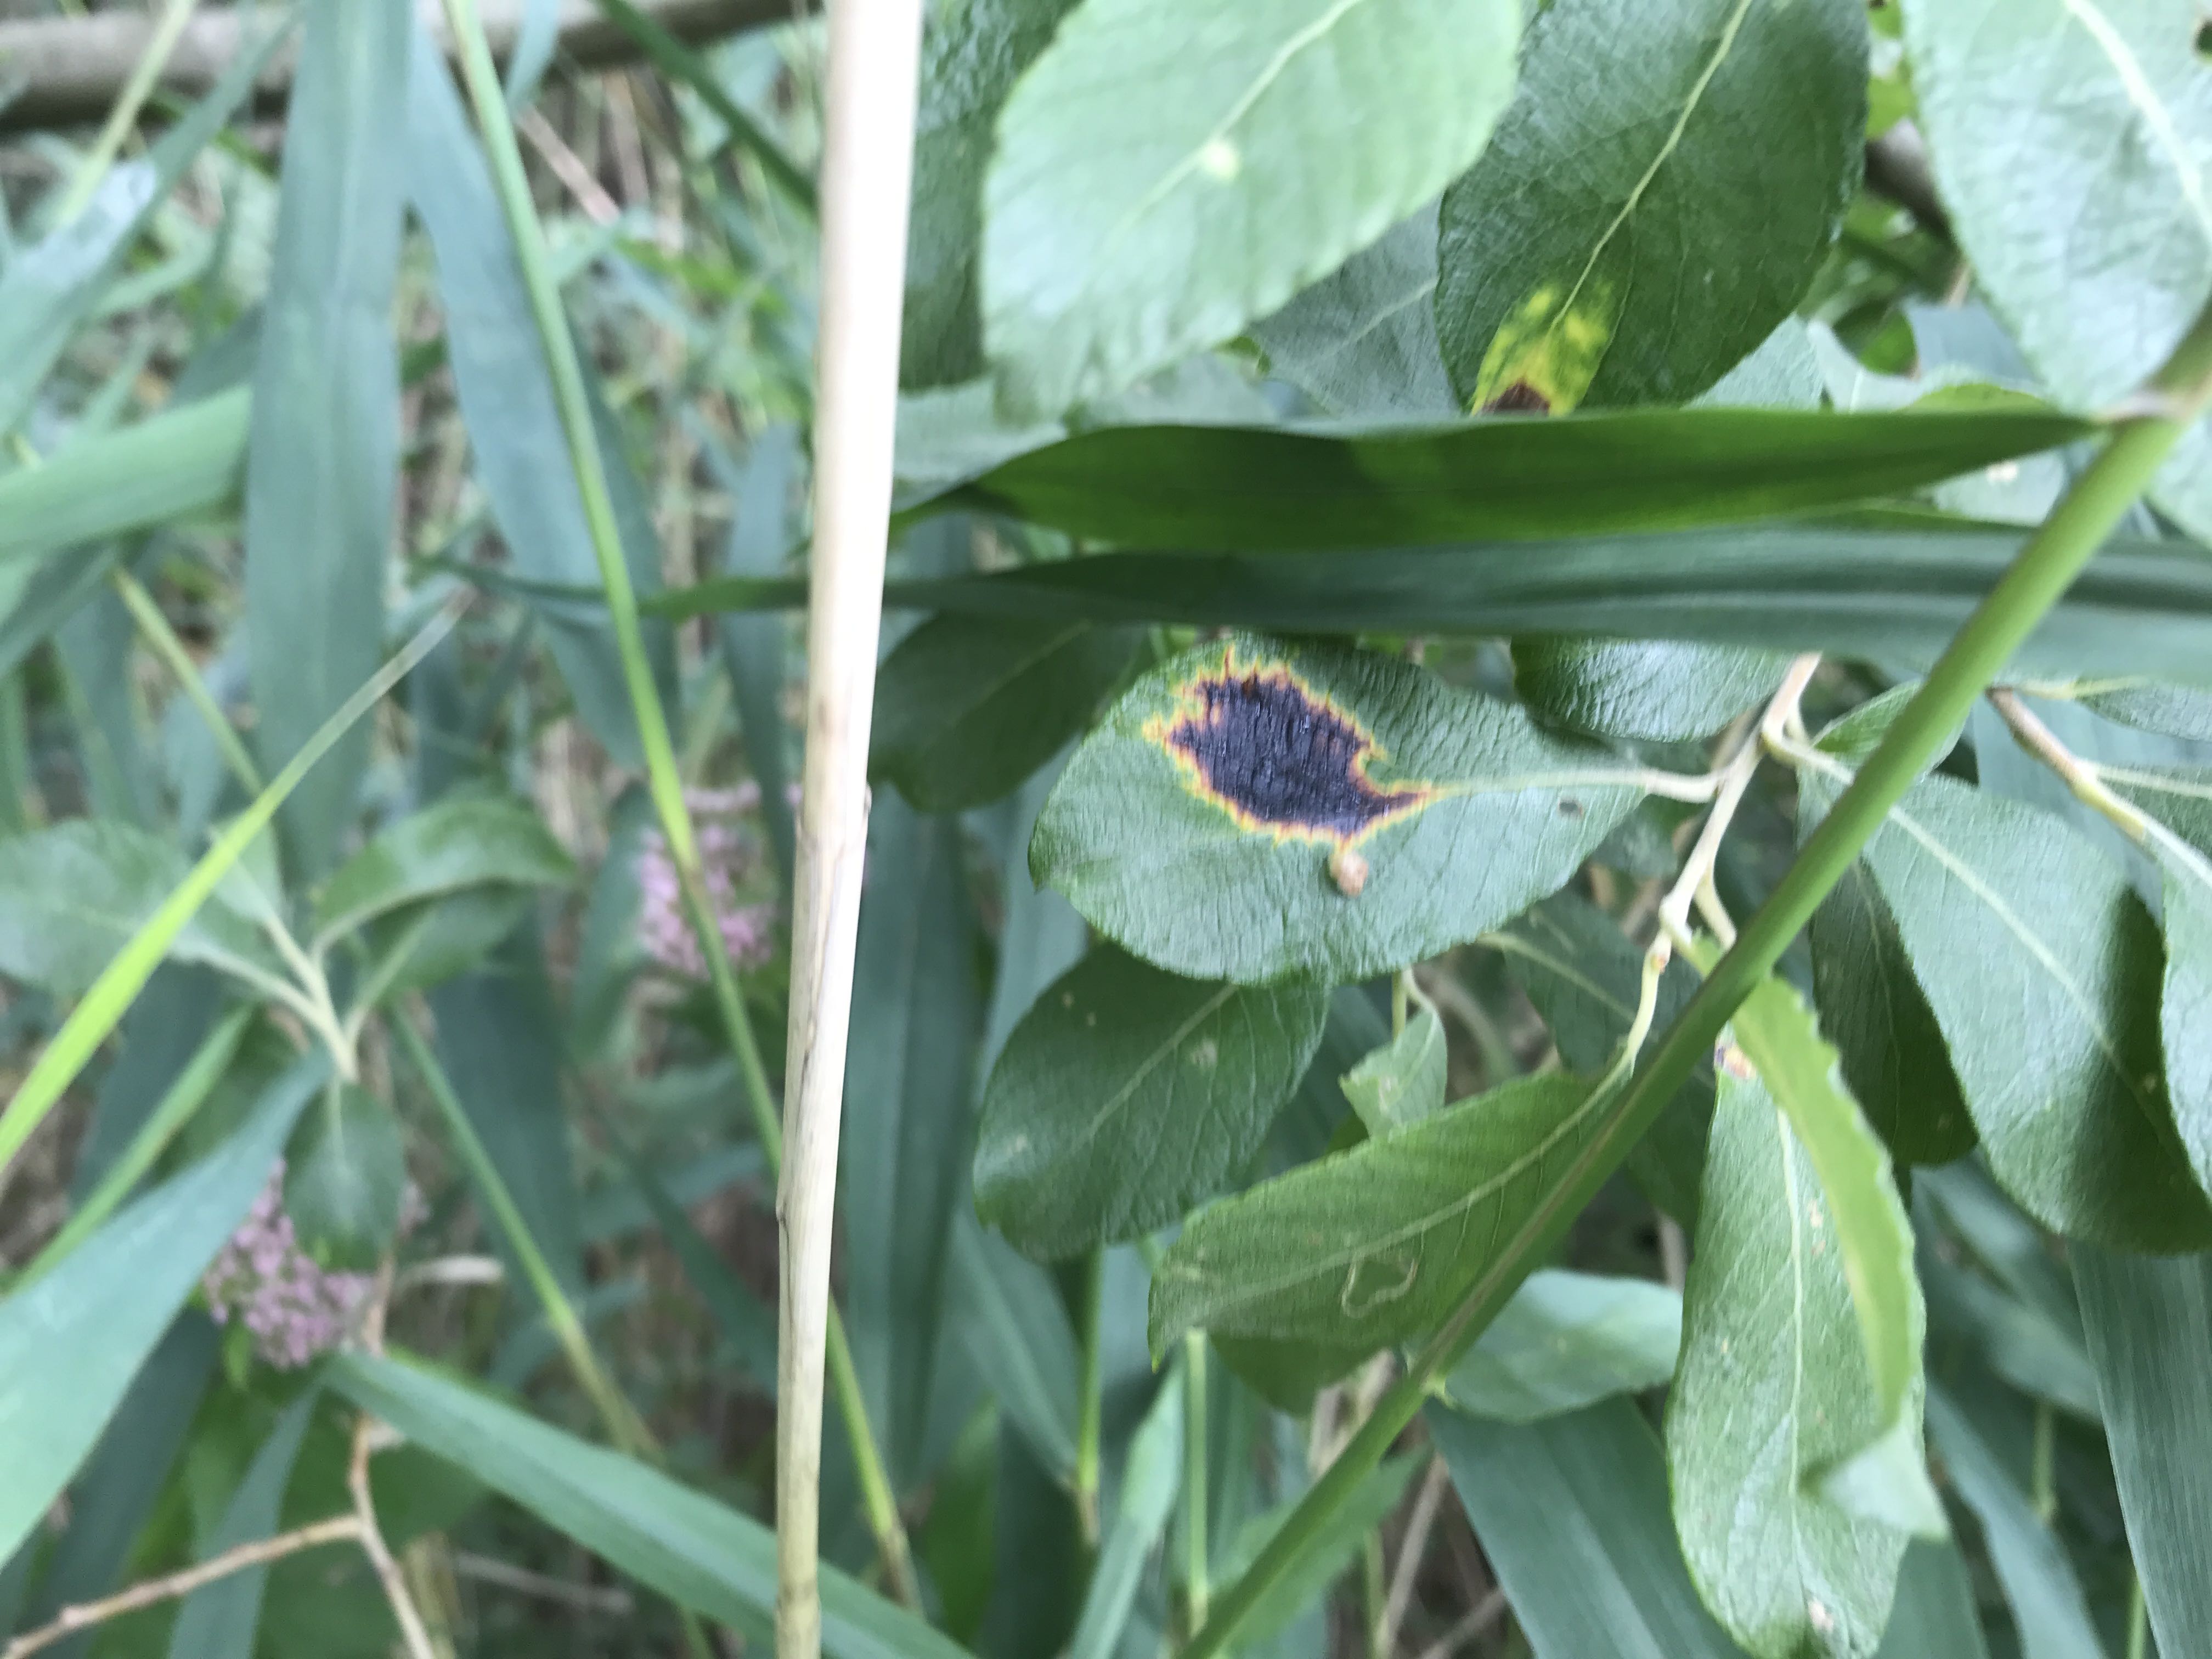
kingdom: Fungi
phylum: Ascomycota
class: Leotiomycetes
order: Rhytismatales
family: Rhytismataceae
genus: Rhytisma
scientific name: Rhytisma salicinum
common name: pile-rynkeplet
